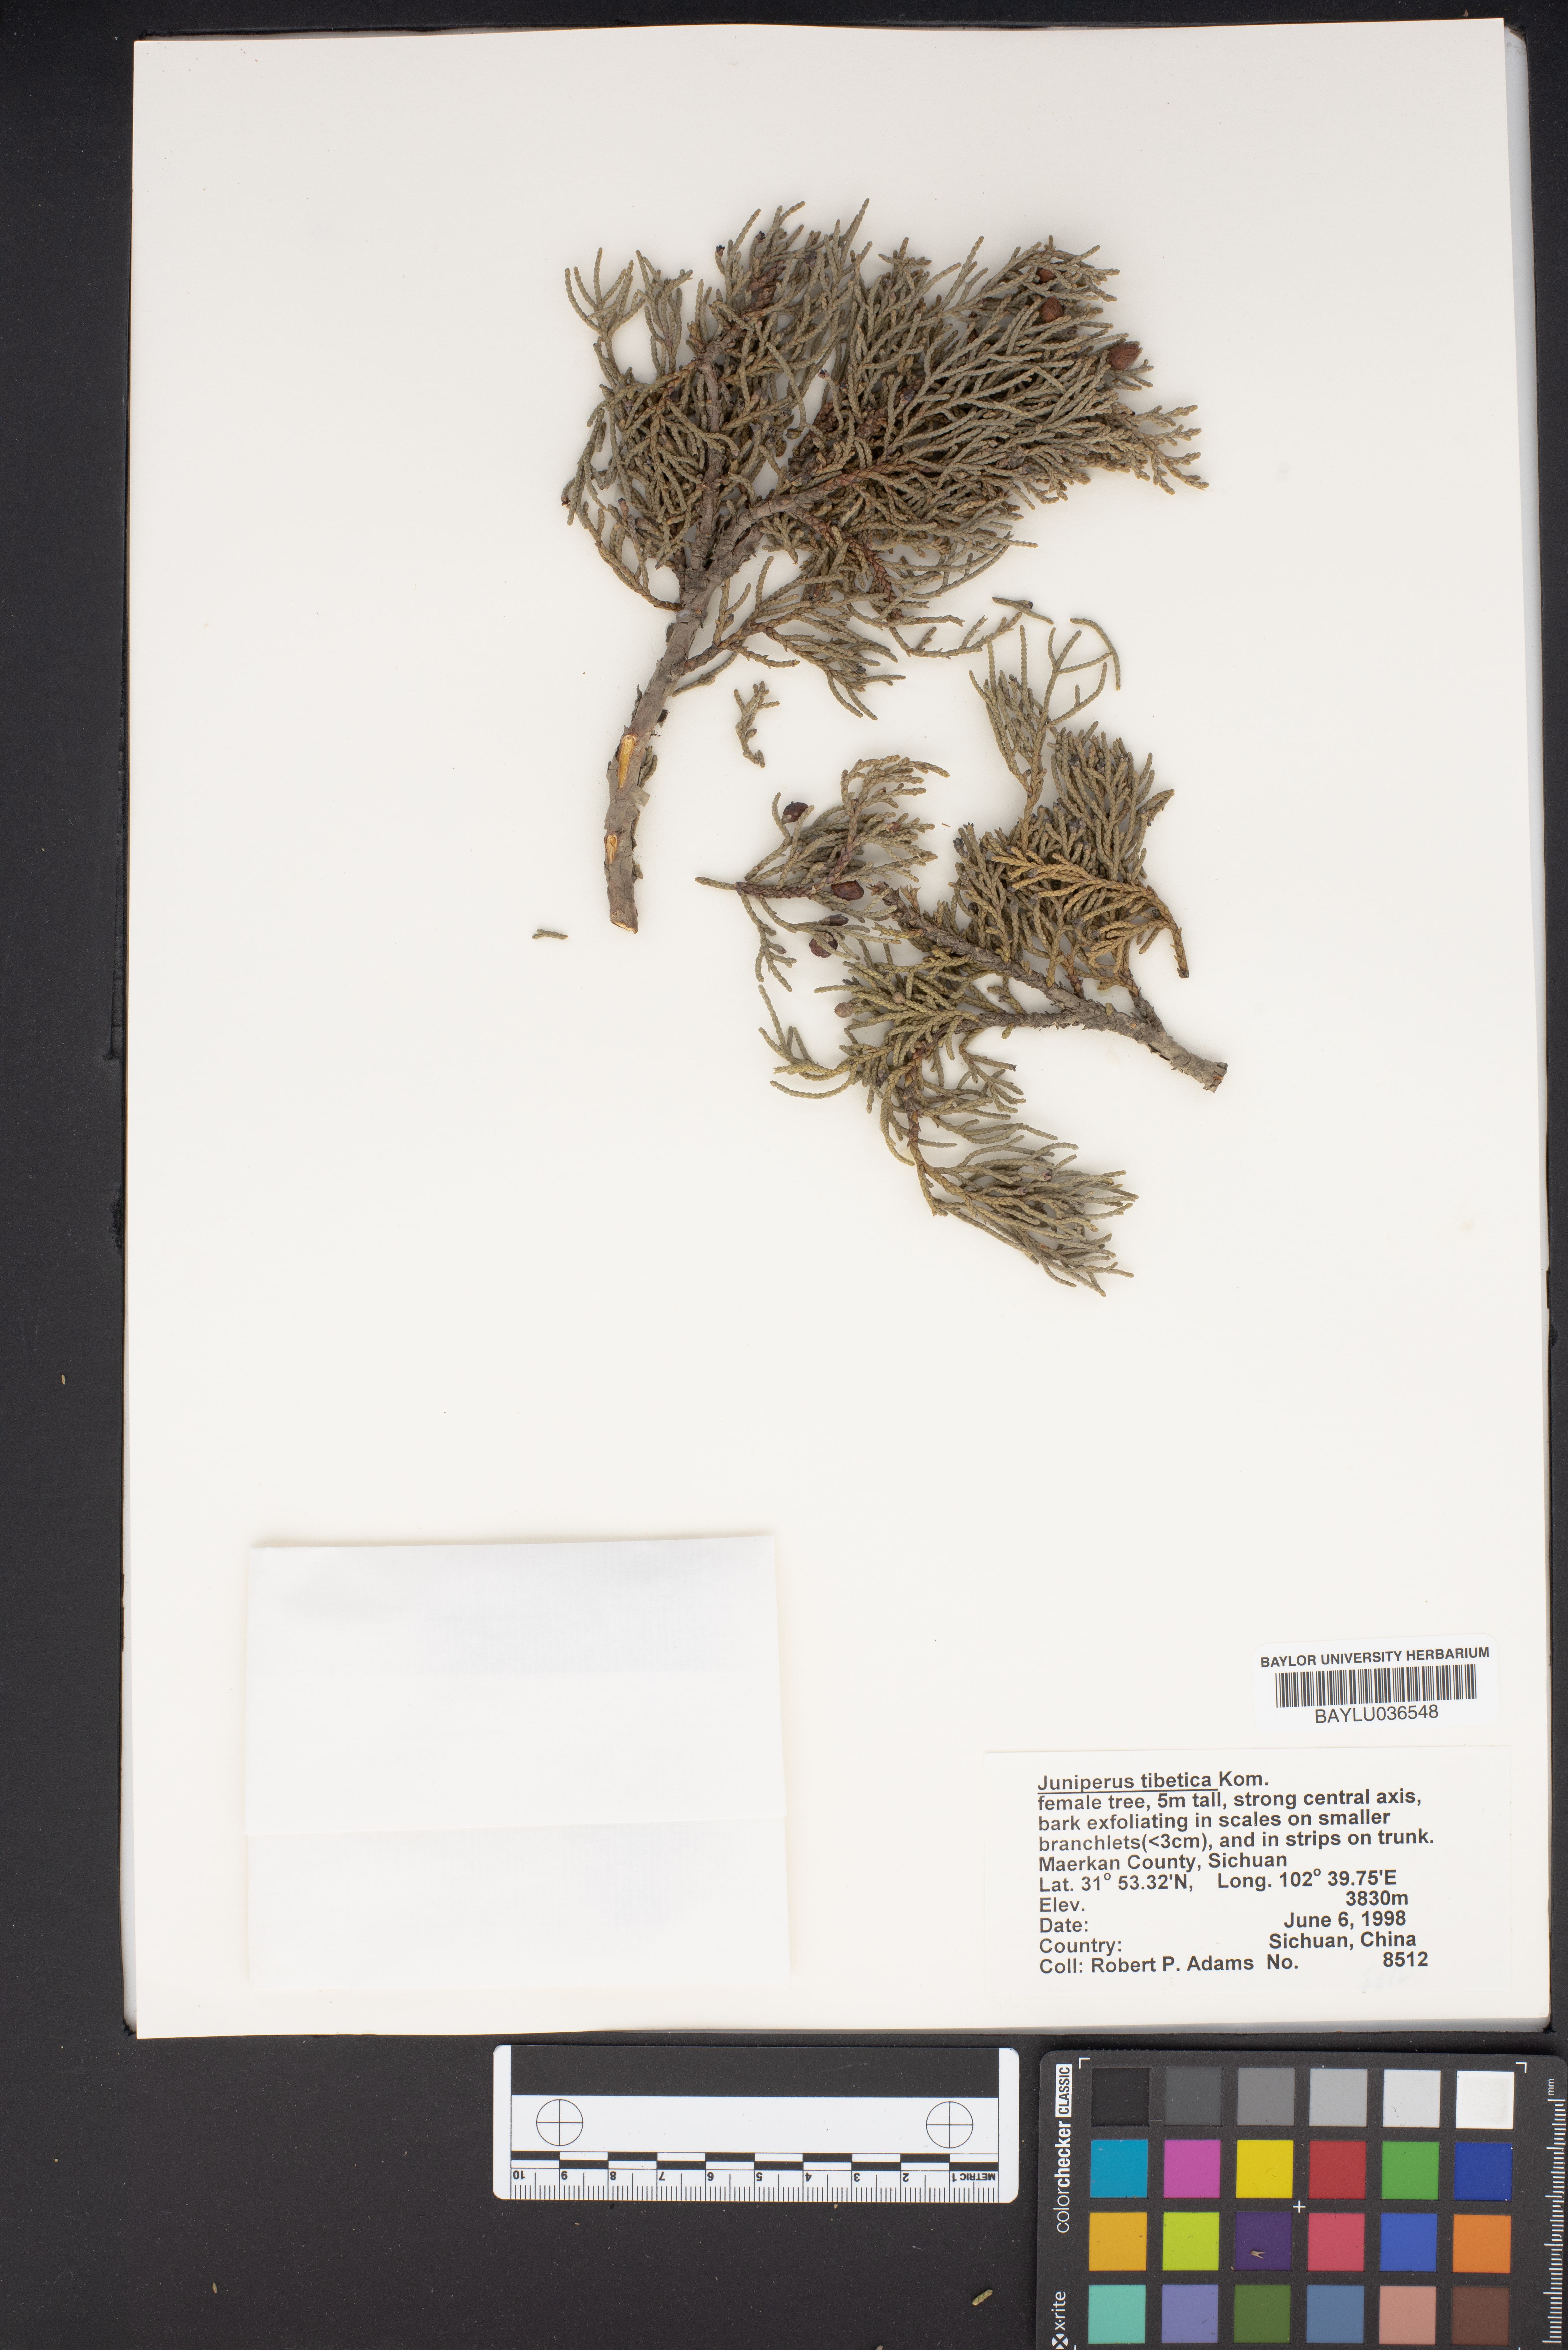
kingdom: Plantae
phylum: Tracheophyta
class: Pinopsida
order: Pinales
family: Cupressaceae
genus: Juniperus
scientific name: Juniperus tibetica
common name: Tibetan juniper
